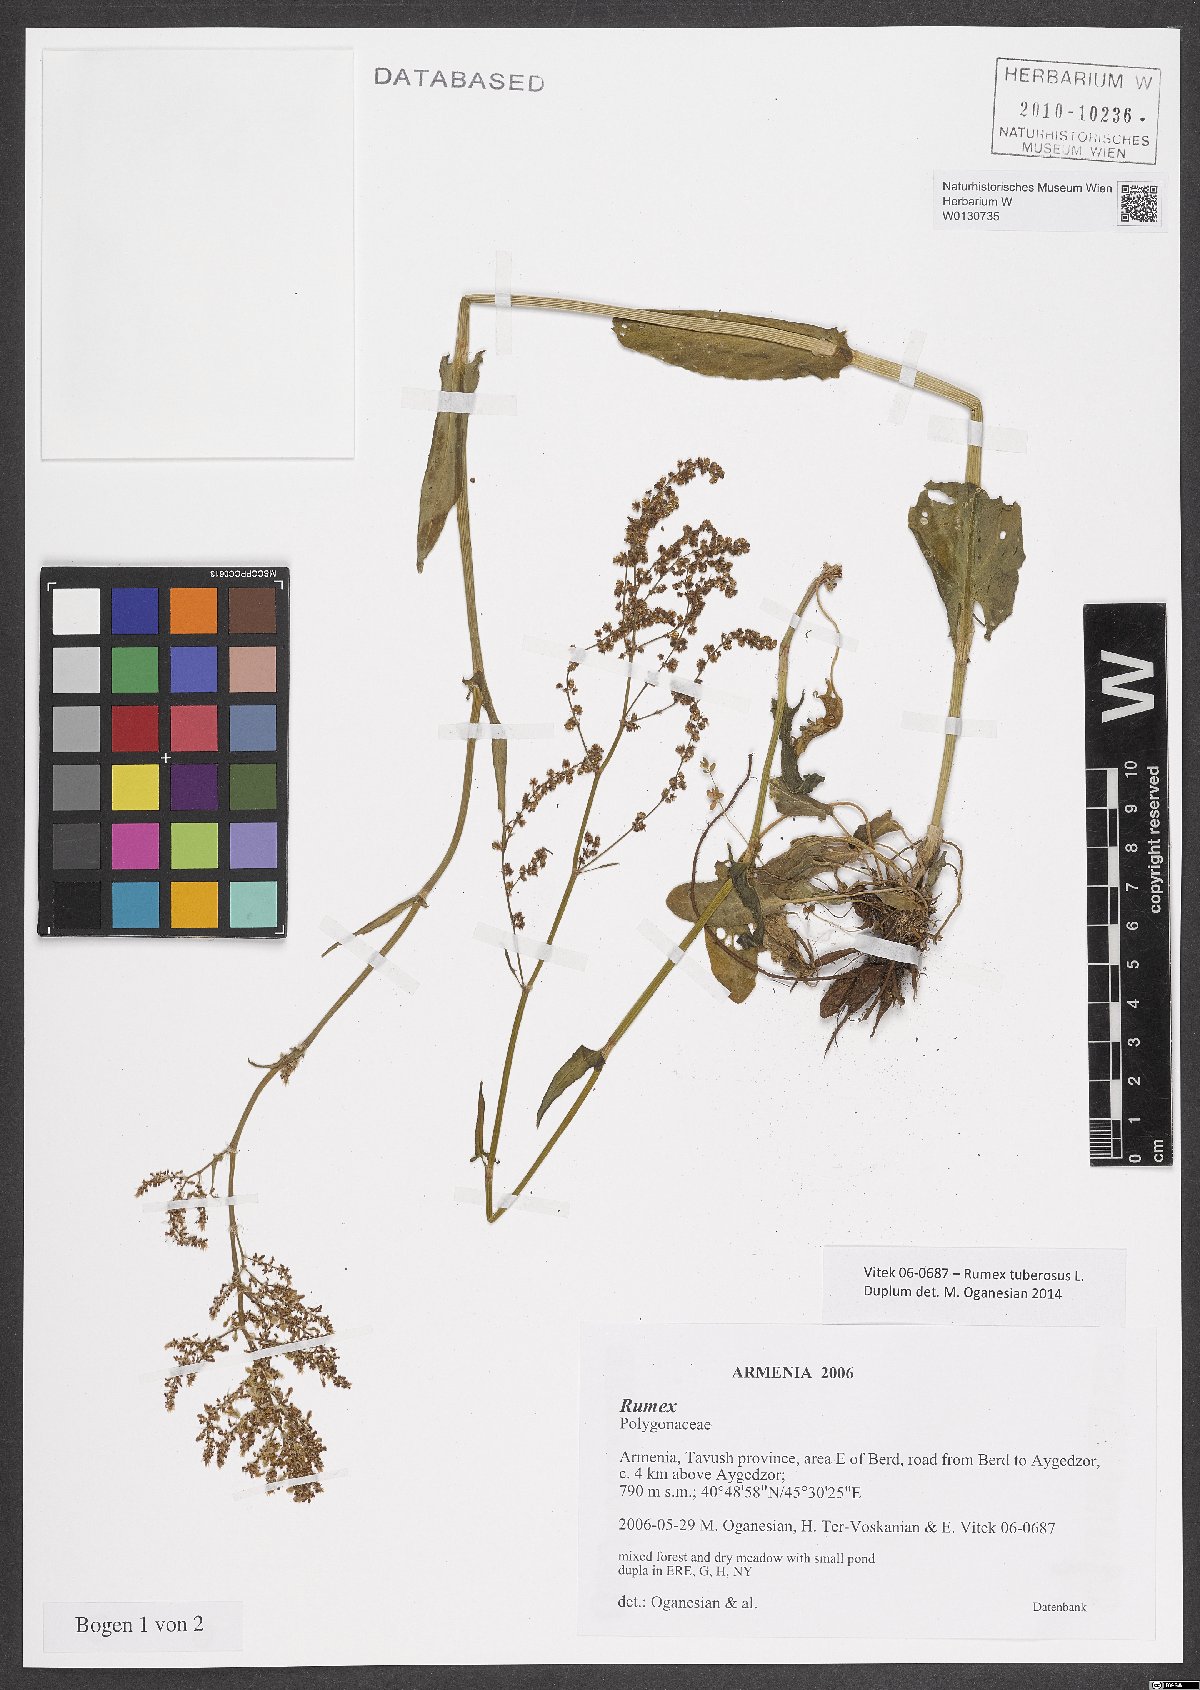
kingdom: Plantae
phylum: Tracheophyta
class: Magnoliopsida
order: Caryophyllales
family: Polygonaceae
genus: Rumex
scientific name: Rumex tuberosus
